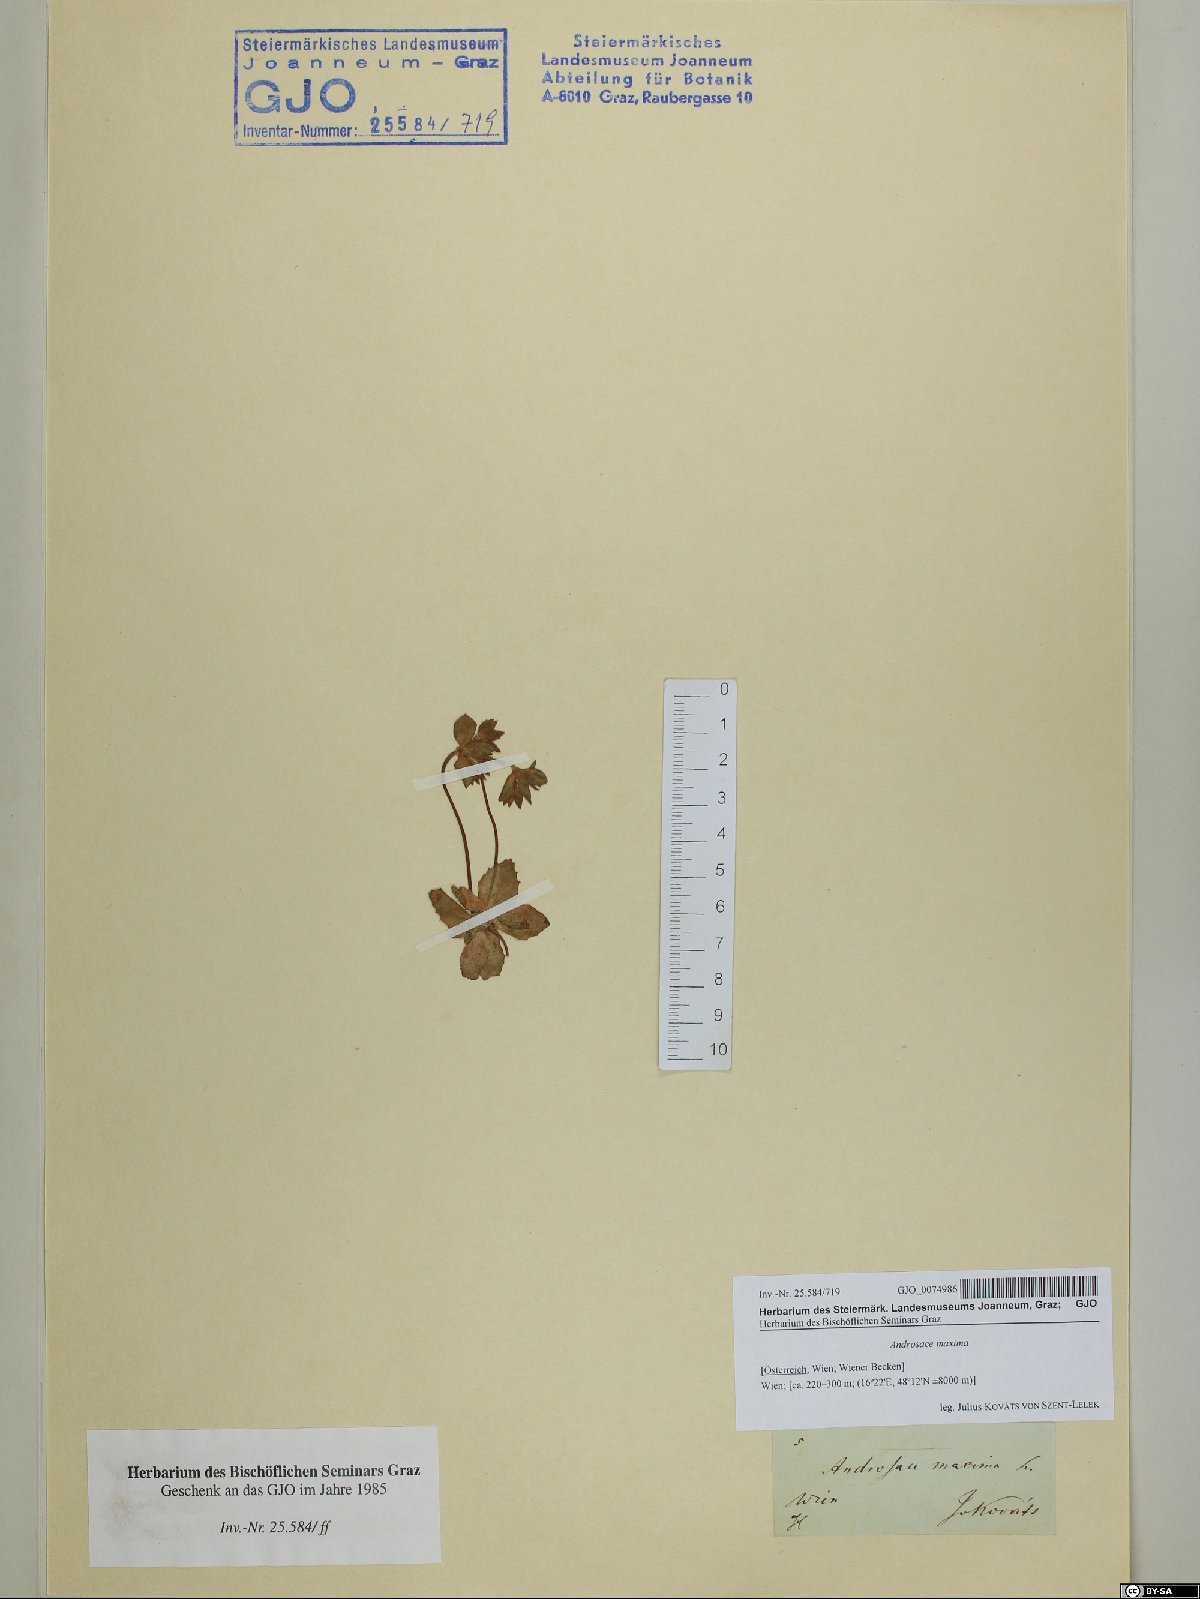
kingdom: Plantae
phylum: Tracheophyta
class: Magnoliopsida
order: Ericales
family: Primulaceae
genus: Androsace
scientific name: Androsace maxima
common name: Annual androsace
